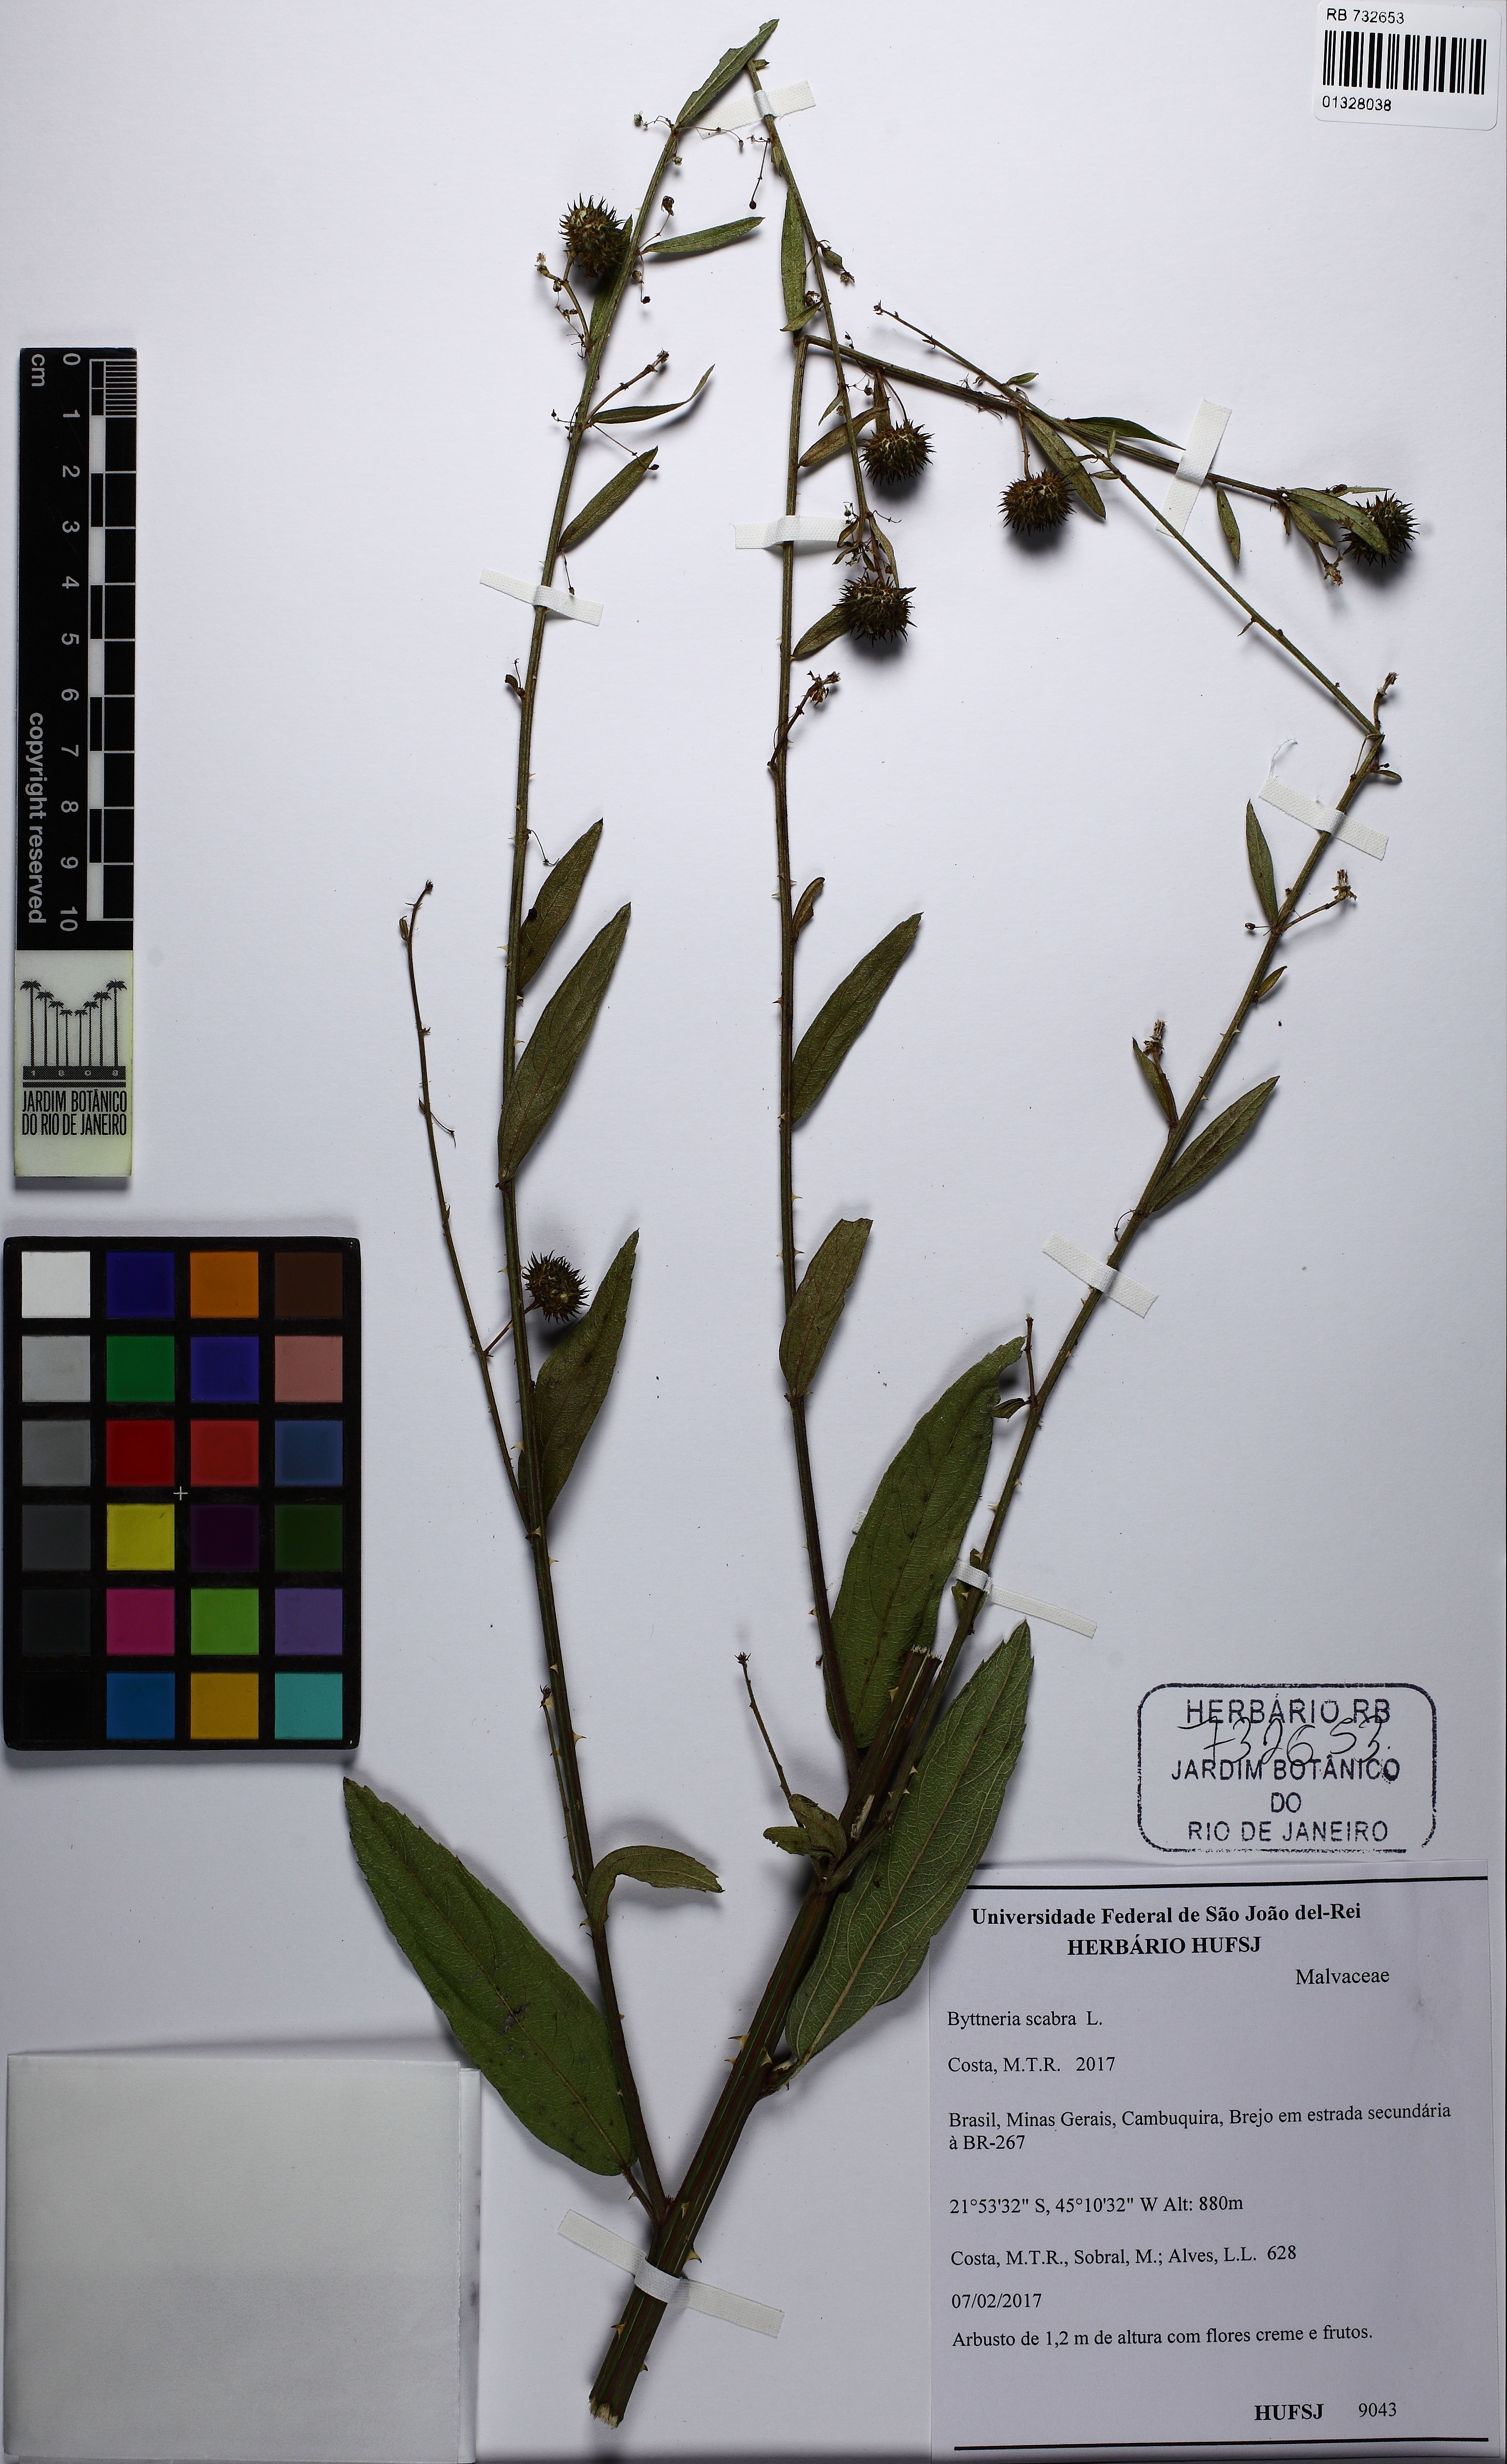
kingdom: Plantae
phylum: Tracheophyta
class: Magnoliopsida
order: Malvales
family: Malvaceae
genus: Byttneria
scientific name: Byttneria scabra
